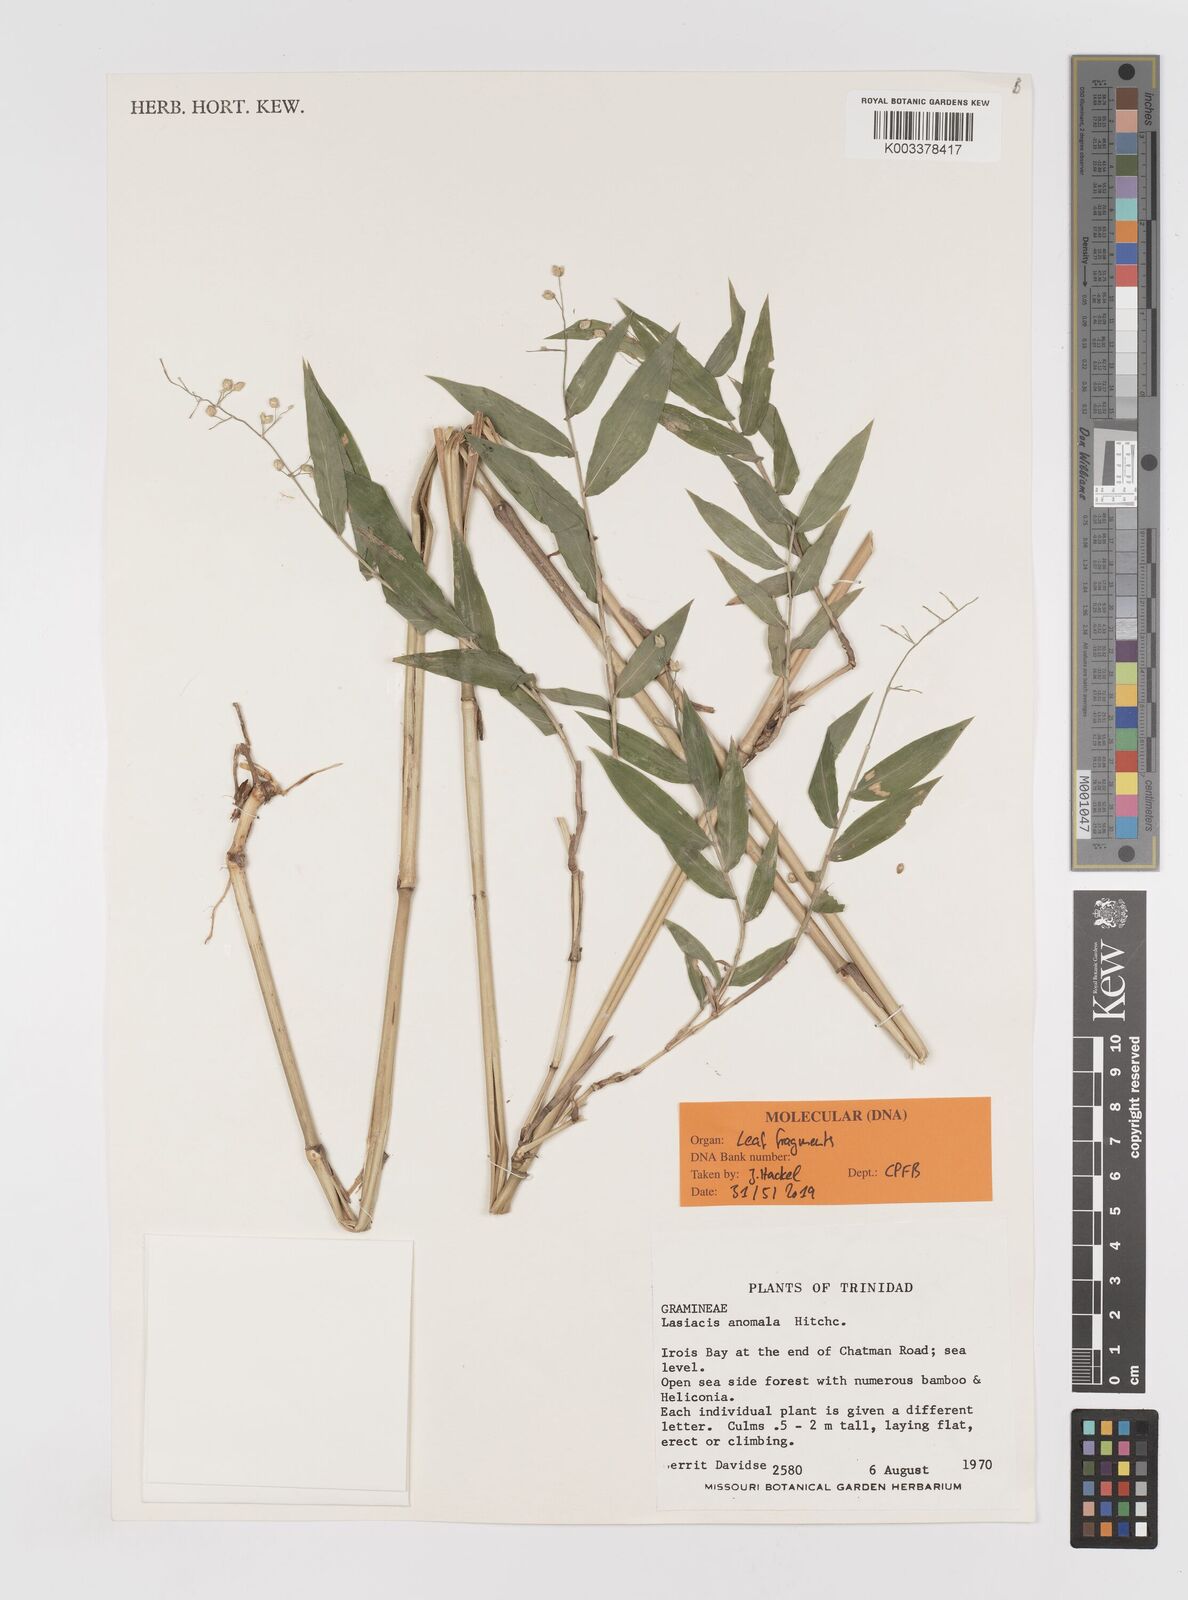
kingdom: Plantae
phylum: Tracheophyta
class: Liliopsida
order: Poales
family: Poaceae
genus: Lasiacis
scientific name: Lasiacis anomala
